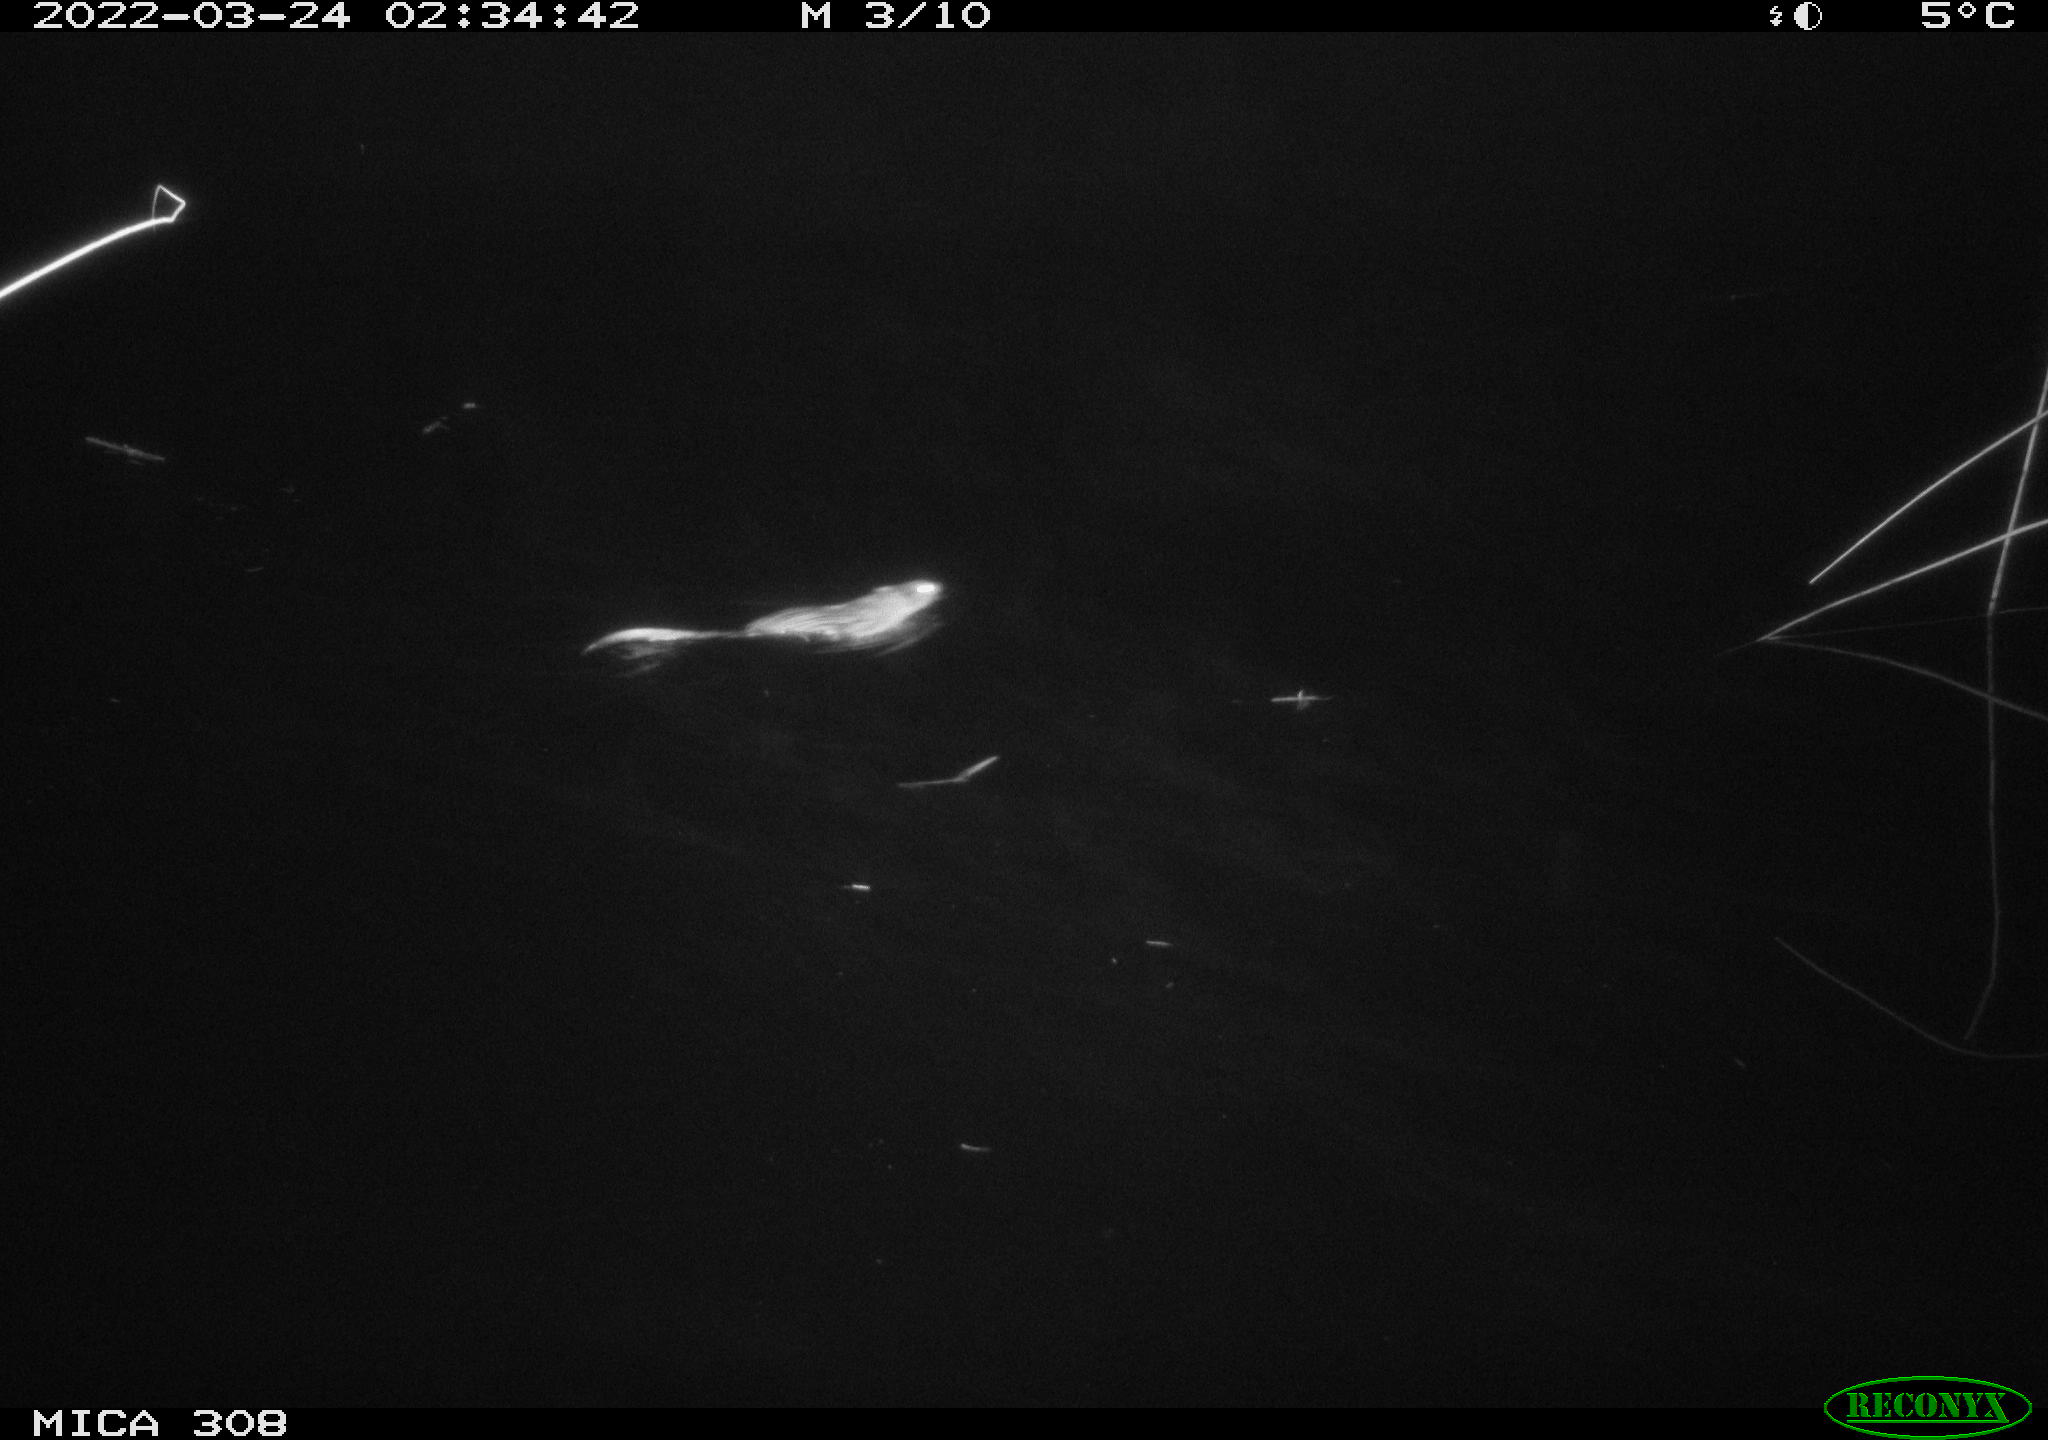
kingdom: Animalia
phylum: Chordata
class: Mammalia
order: Rodentia
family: Cricetidae
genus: Ondatra
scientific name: Ondatra zibethicus
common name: Muskrat
